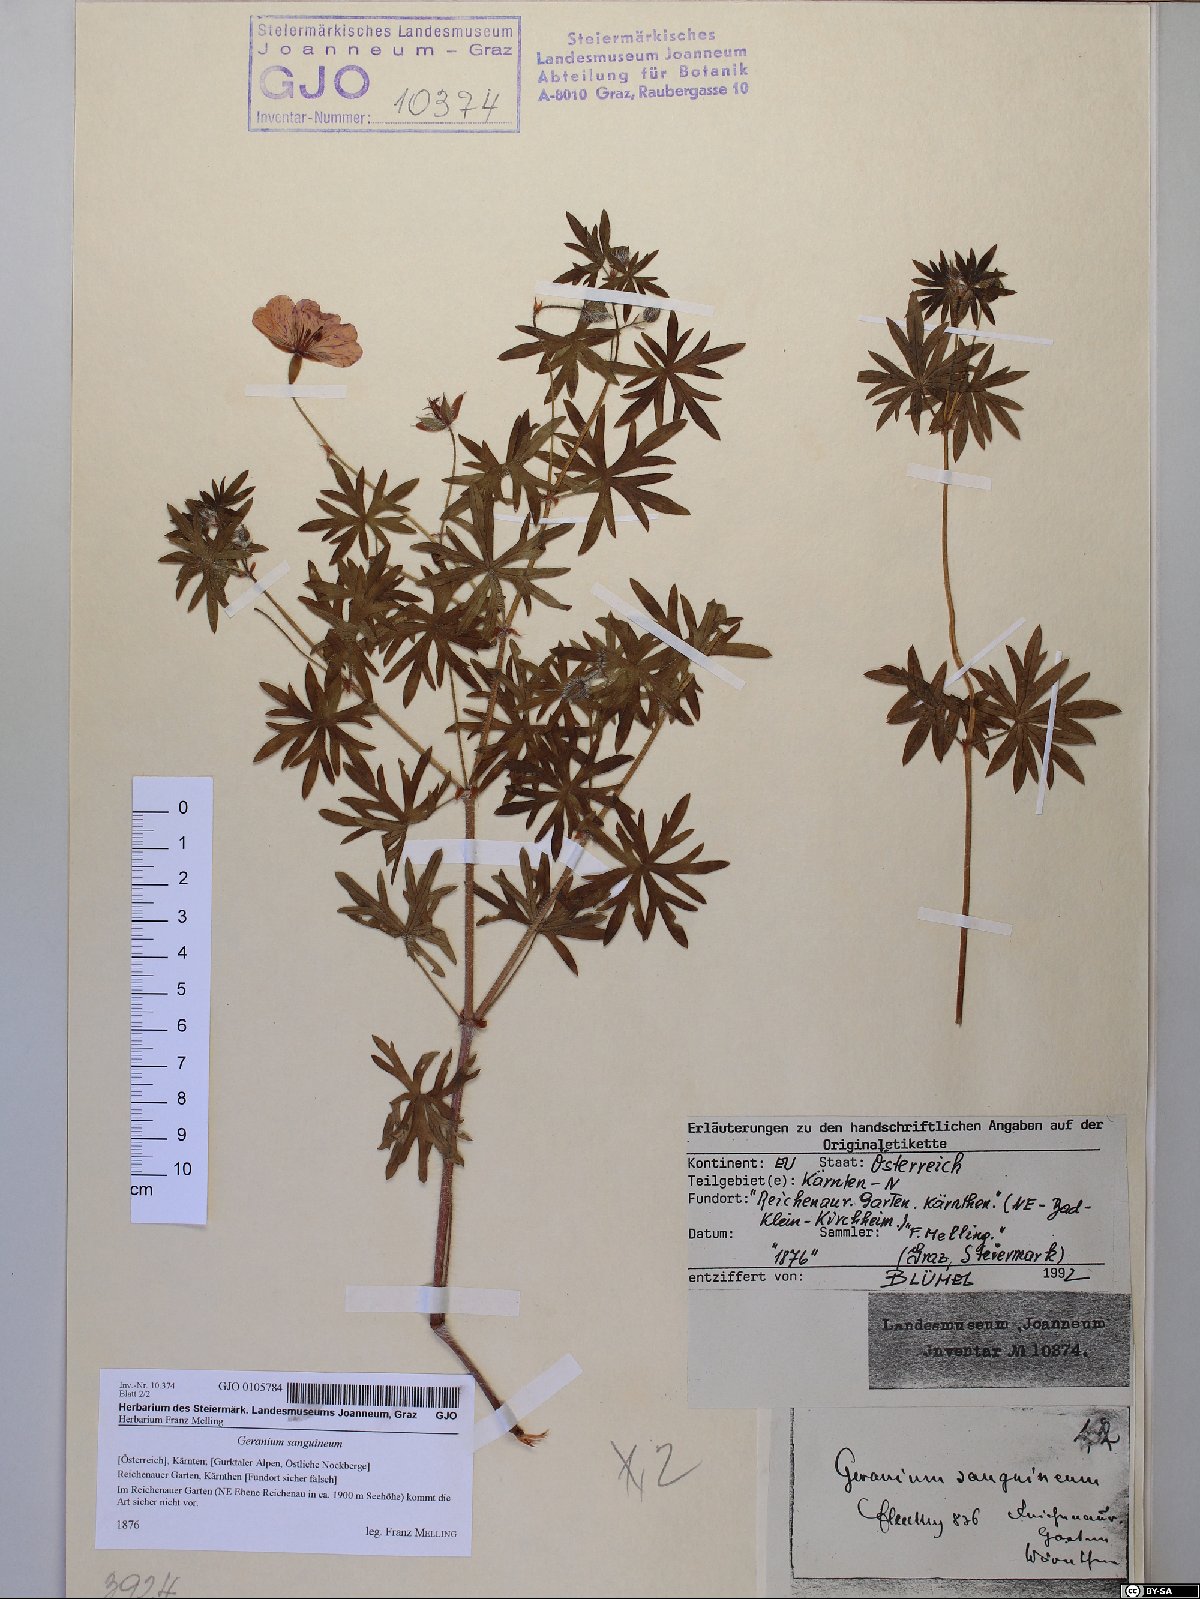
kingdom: Plantae
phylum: Tracheophyta
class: Magnoliopsida
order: Geraniales
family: Geraniaceae
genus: Geranium
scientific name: Geranium sanguineum
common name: Bloody crane's-bill
